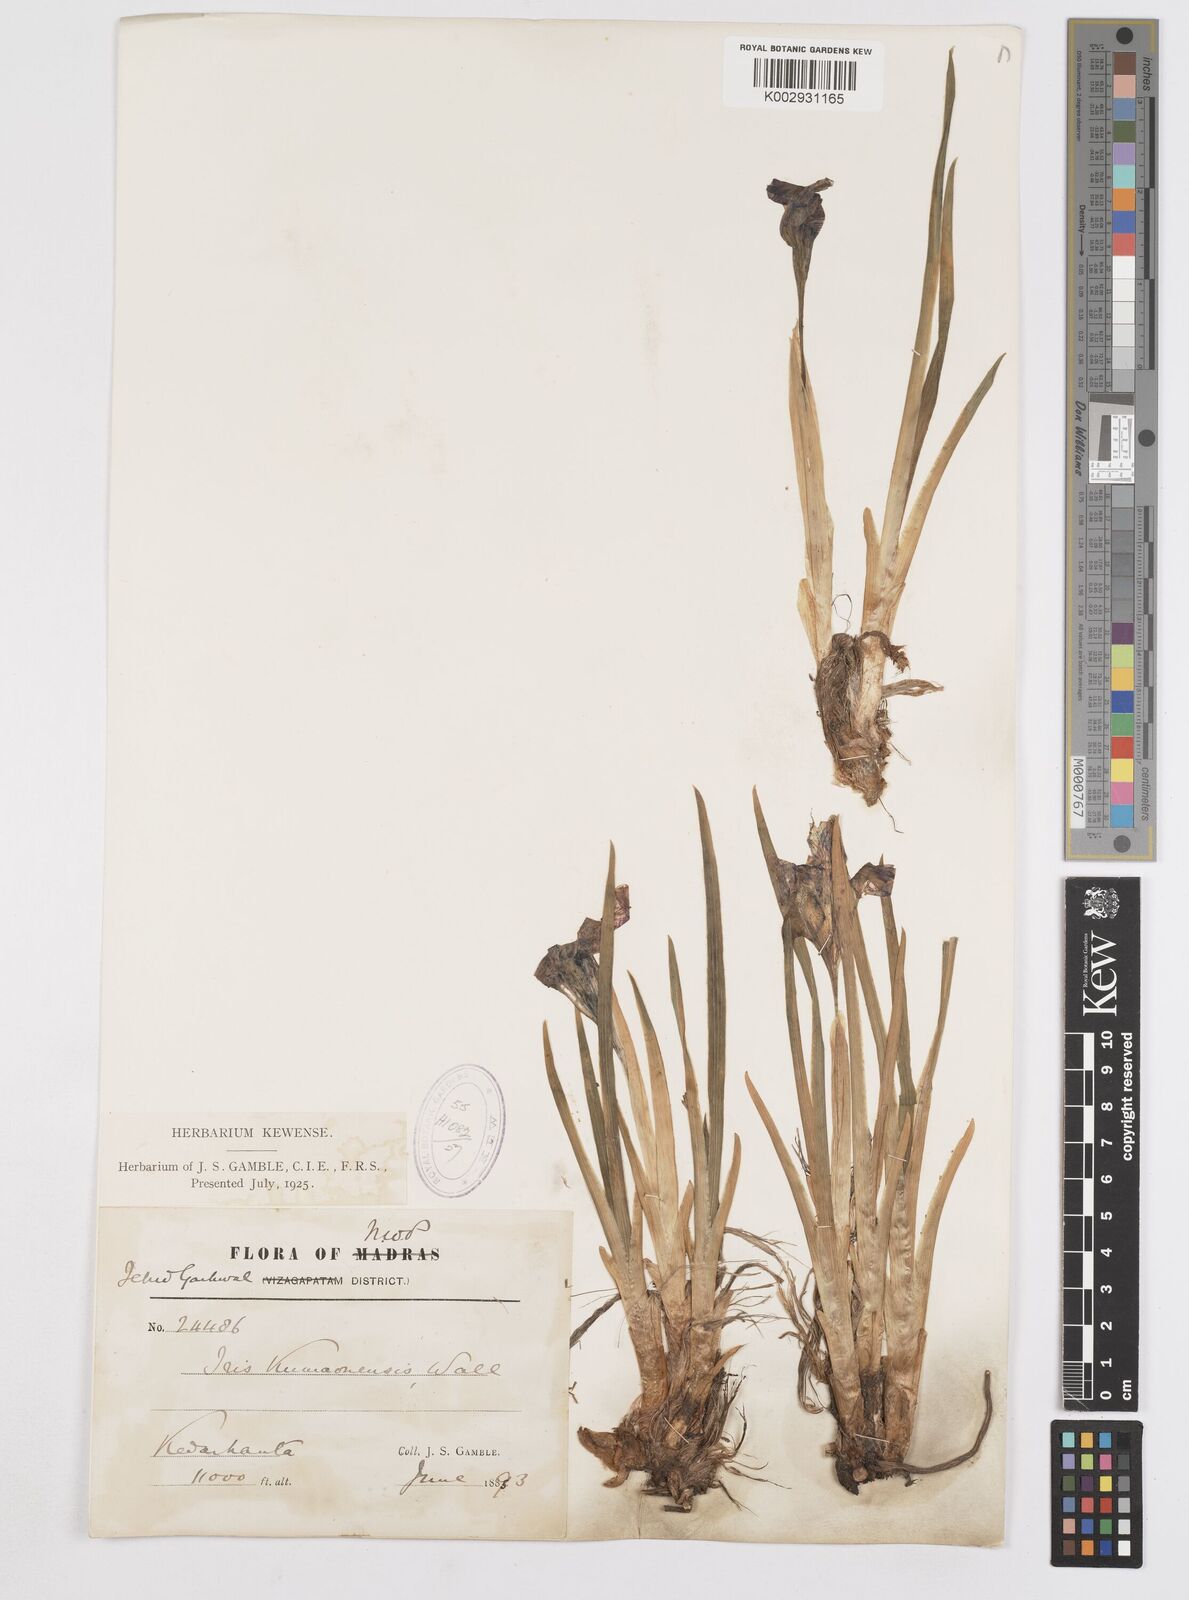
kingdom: Plantae
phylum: Tracheophyta
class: Liliopsida
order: Asparagales
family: Iridaceae
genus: Iris
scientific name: Iris kemaonensis
